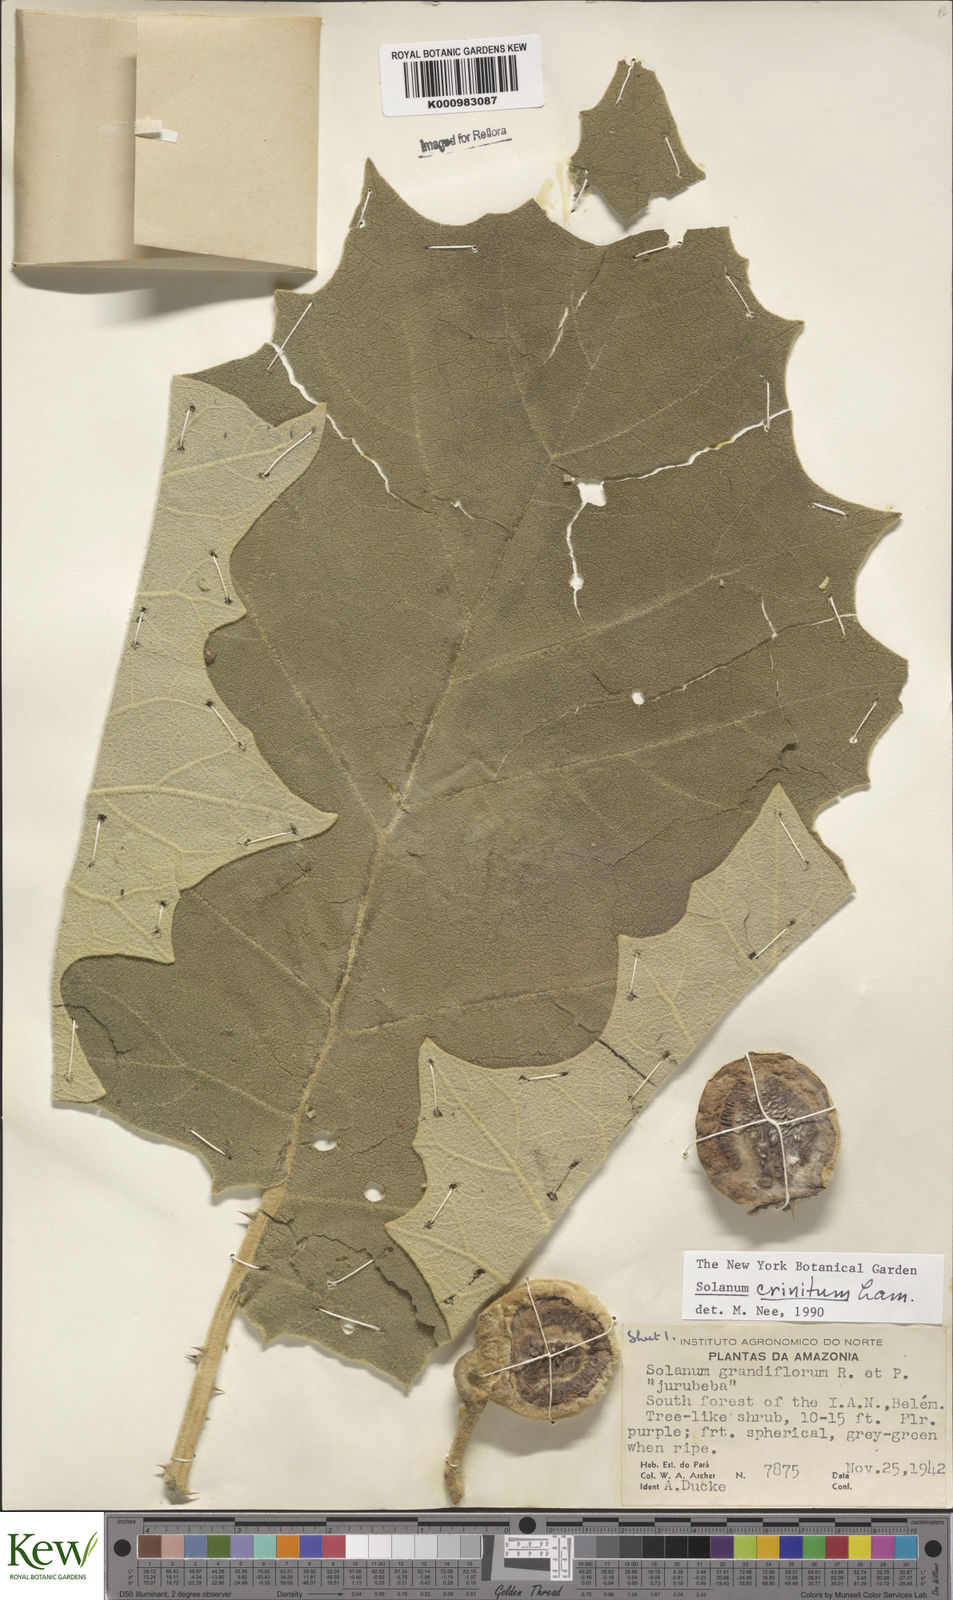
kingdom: Plantae
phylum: Tracheophyta
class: Magnoliopsida
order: Solanales
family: Solanaceae
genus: Solanum
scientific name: Solanum crinitum
